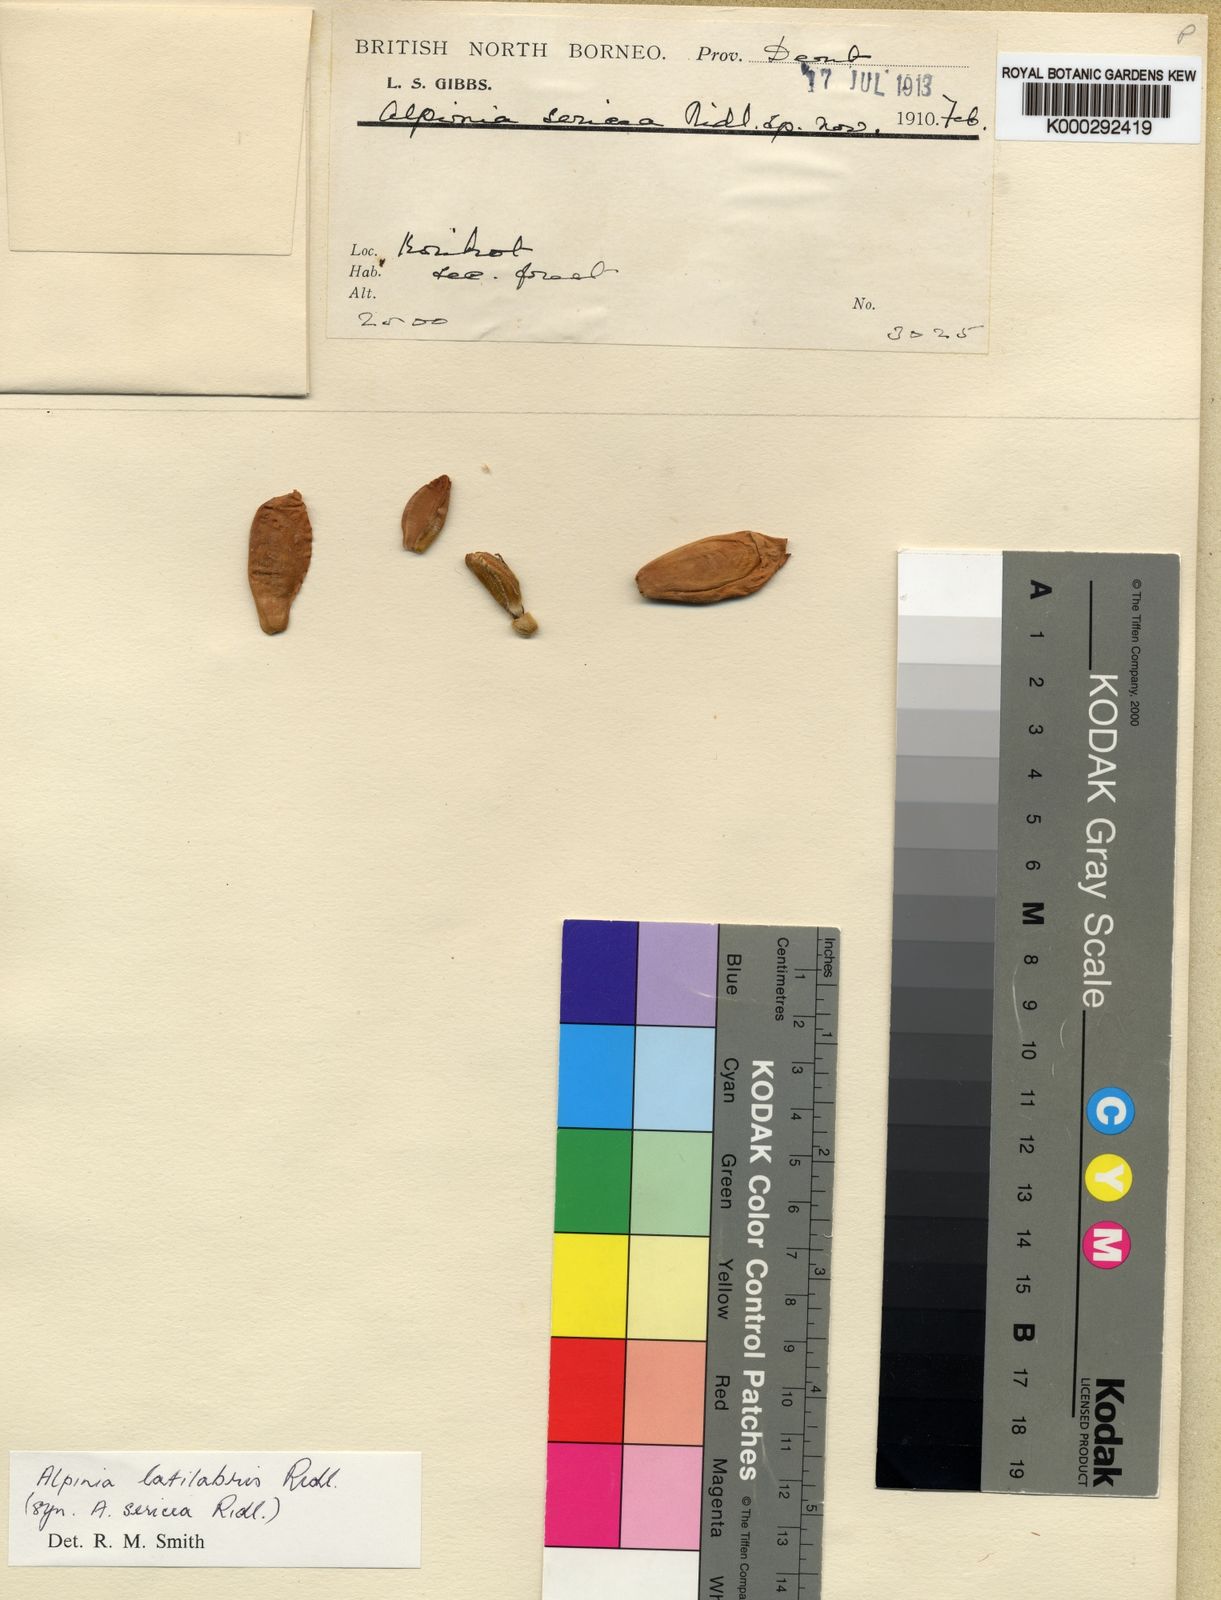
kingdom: Plantae
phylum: Tracheophyta
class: Liliopsida
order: Zingiberales
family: Zingiberaceae
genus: Alpinia
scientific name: Alpinia latilabris
